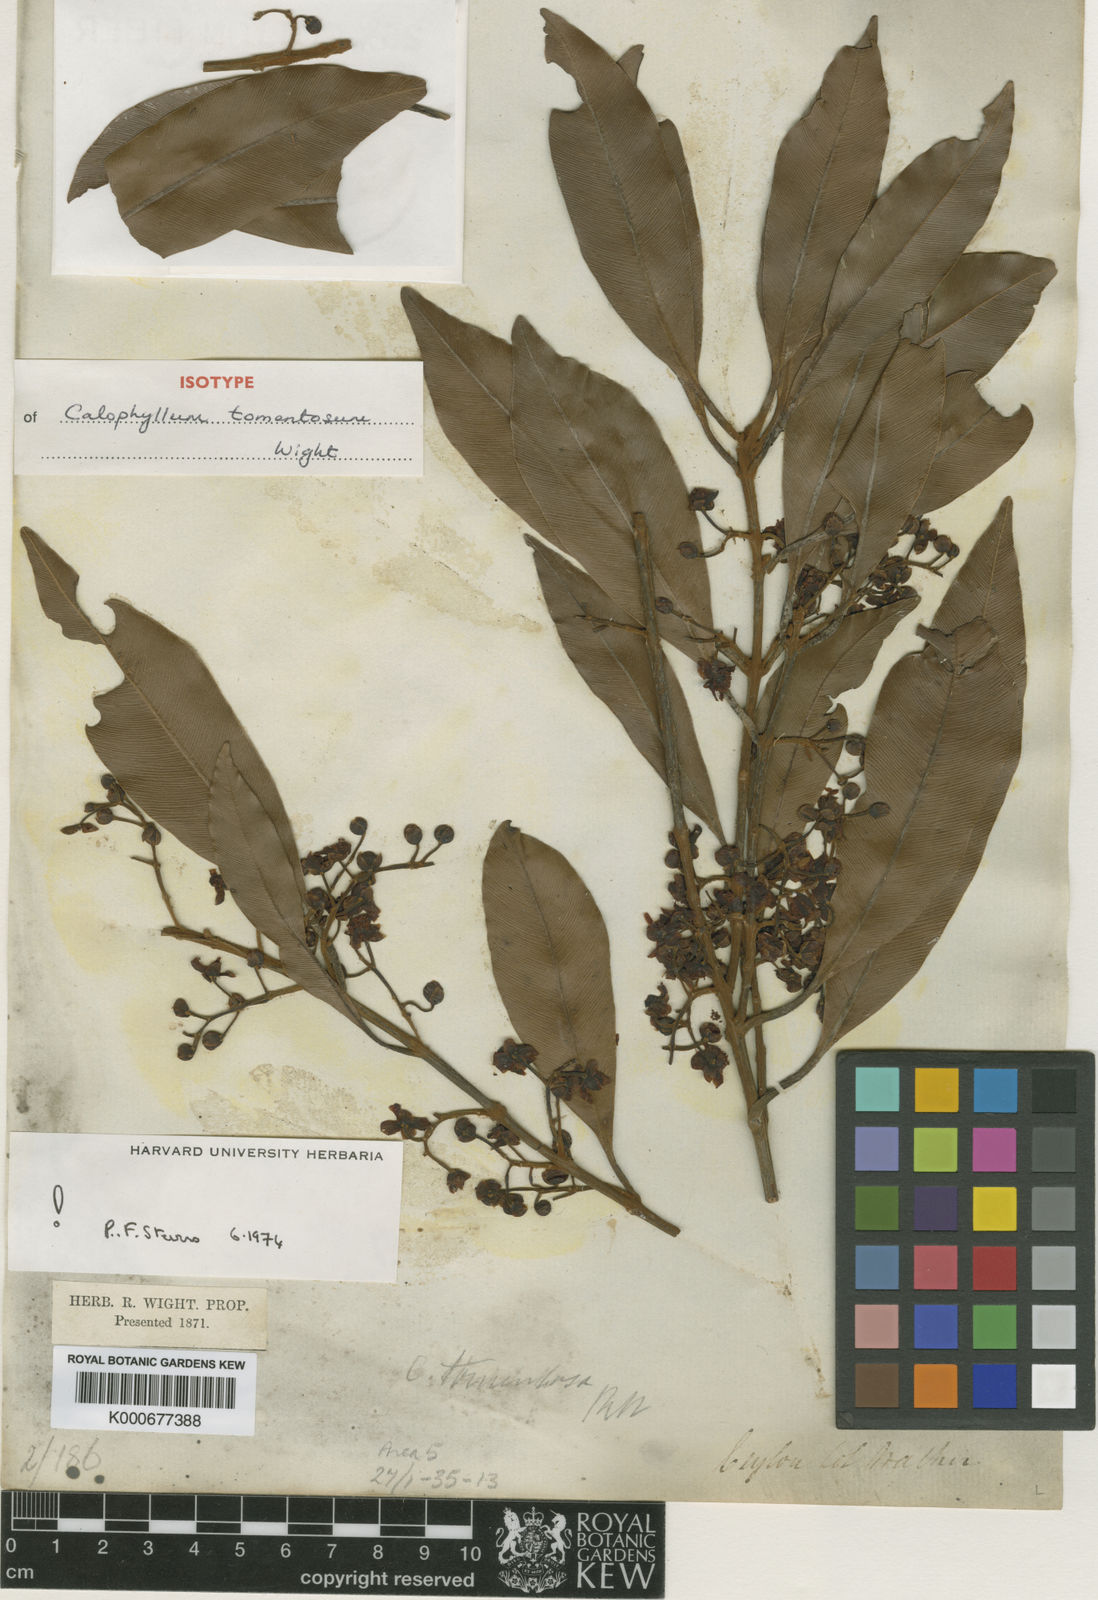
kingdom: Plantae
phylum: Tracheophyta
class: Magnoliopsida
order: Malpighiales
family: Calophyllaceae
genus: Calophyllum
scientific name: Calophyllum tomentosum
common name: Pink touriga
